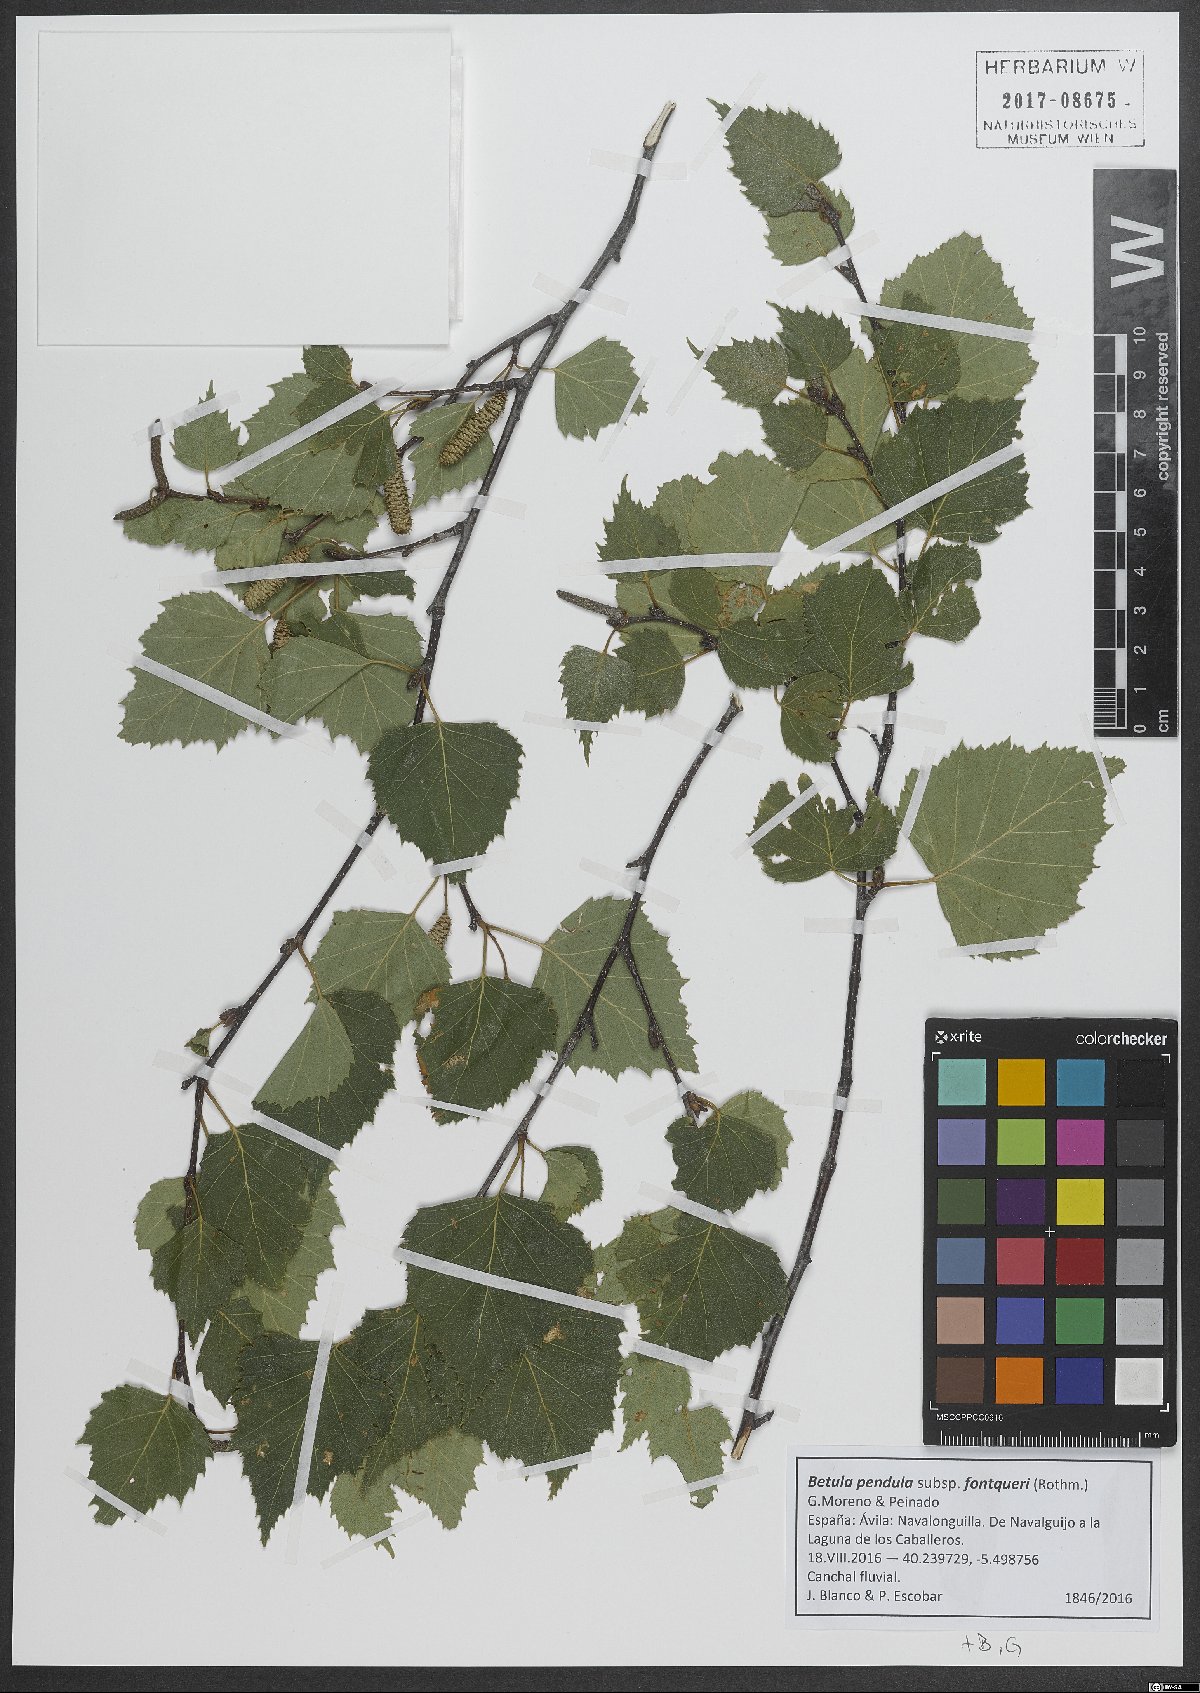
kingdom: Plantae
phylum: Tracheophyta
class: Magnoliopsida
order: Fagales
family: Betulaceae
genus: Betula
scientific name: Betula pendula
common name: Silver birch
